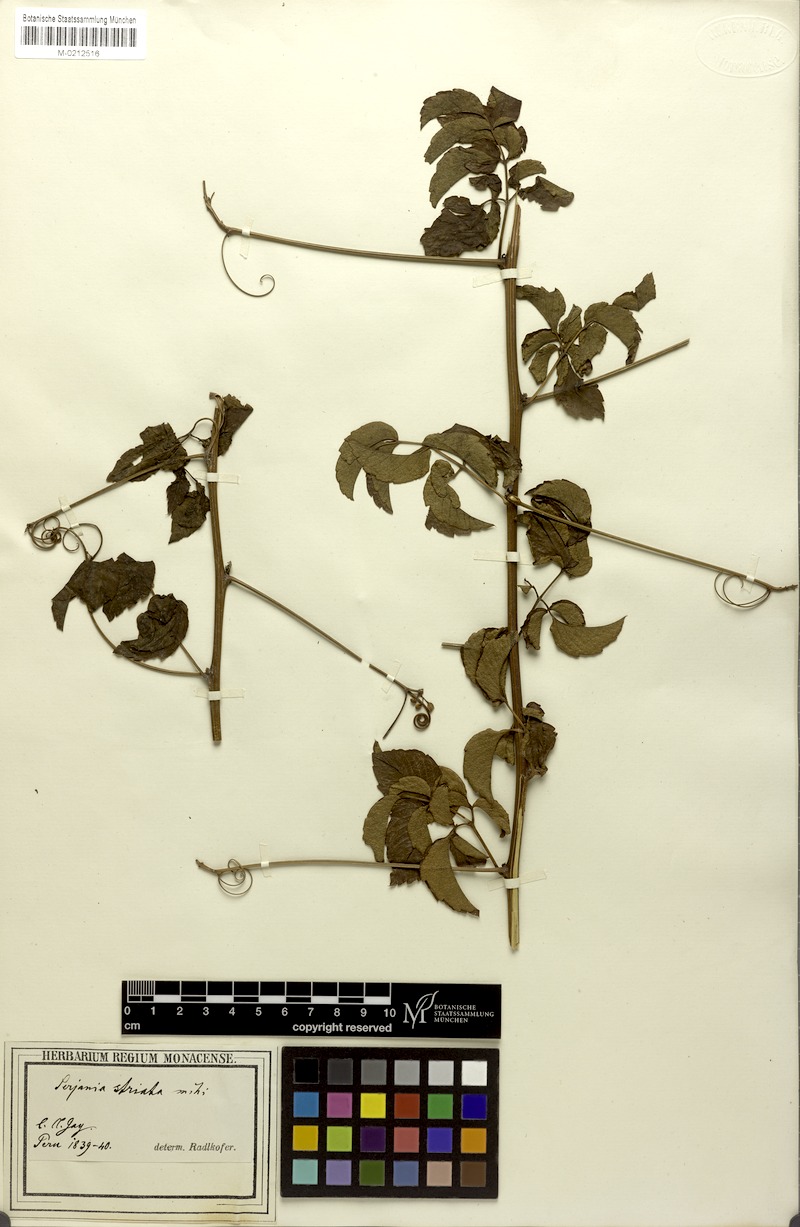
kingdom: Plantae
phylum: Tracheophyta
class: Magnoliopsida
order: Sapindales
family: Sapindaceae
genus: Serjania
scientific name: Serjania striata
